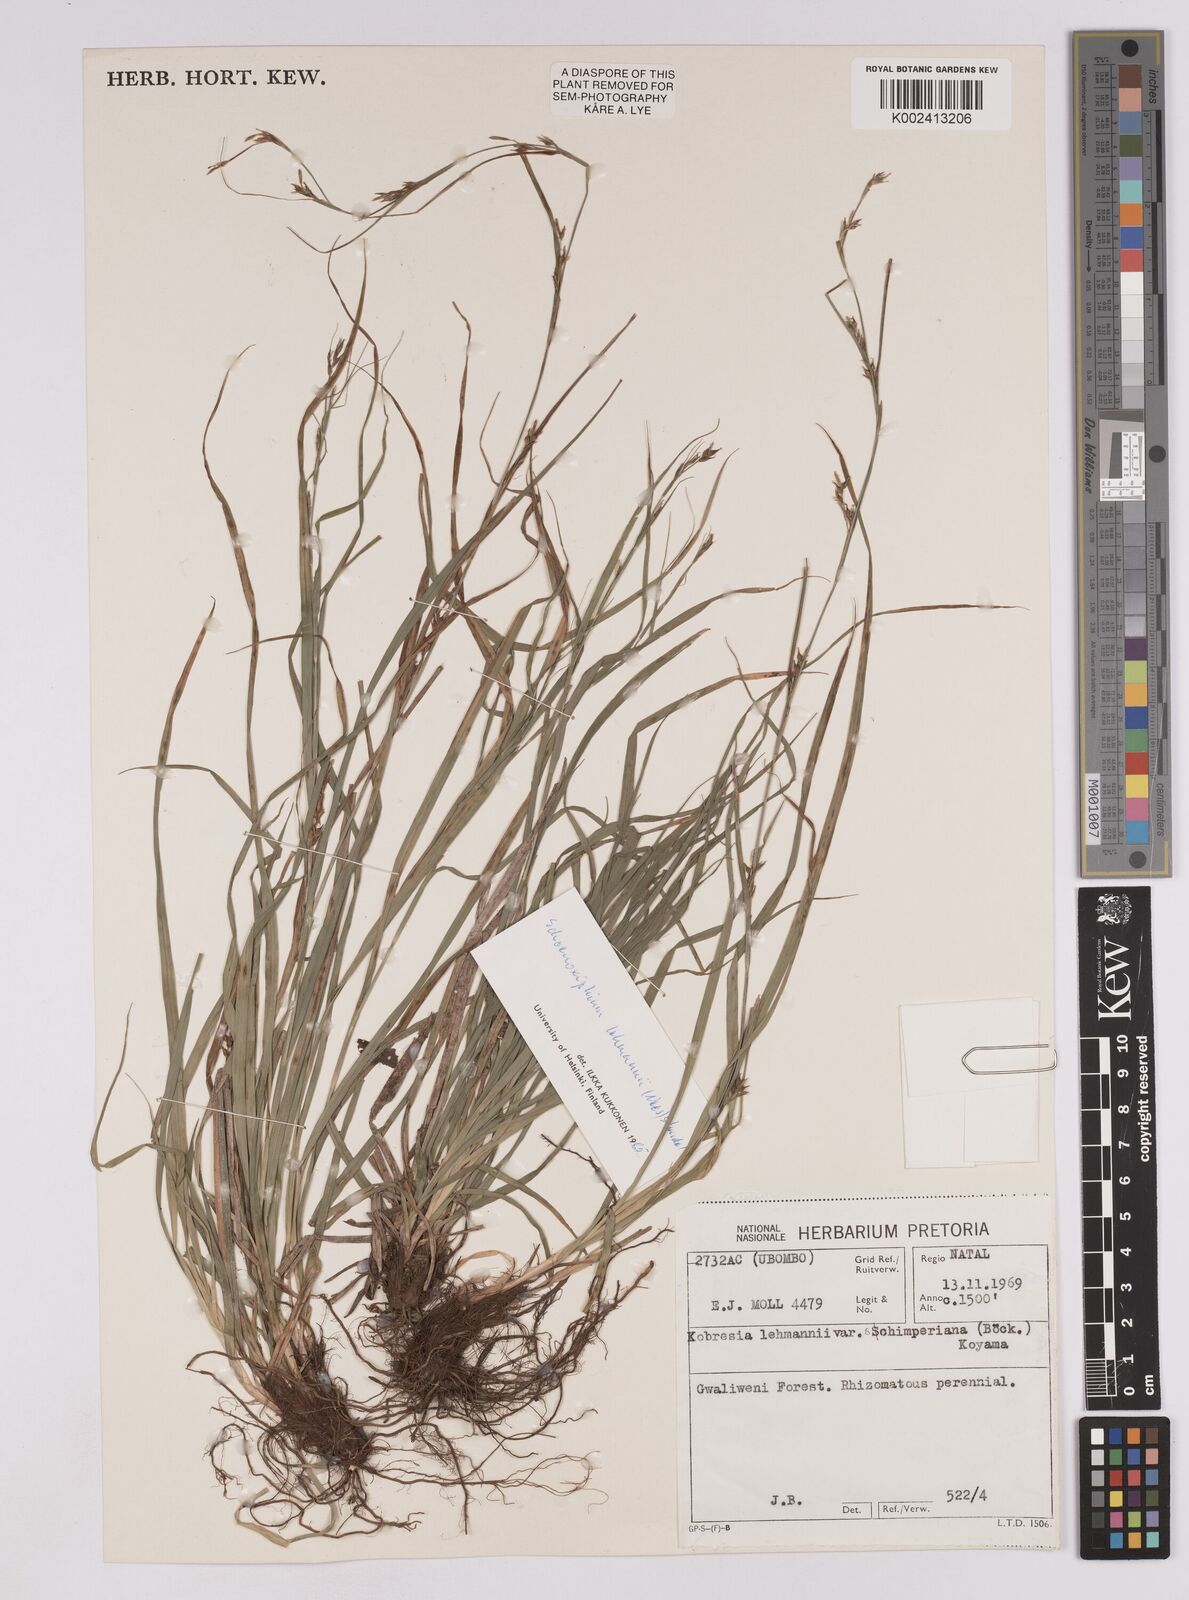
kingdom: Plantae
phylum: Tracheophyta
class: Liliopsida
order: Poales
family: Cyperaceae
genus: Carex
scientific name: Carex uhligii
